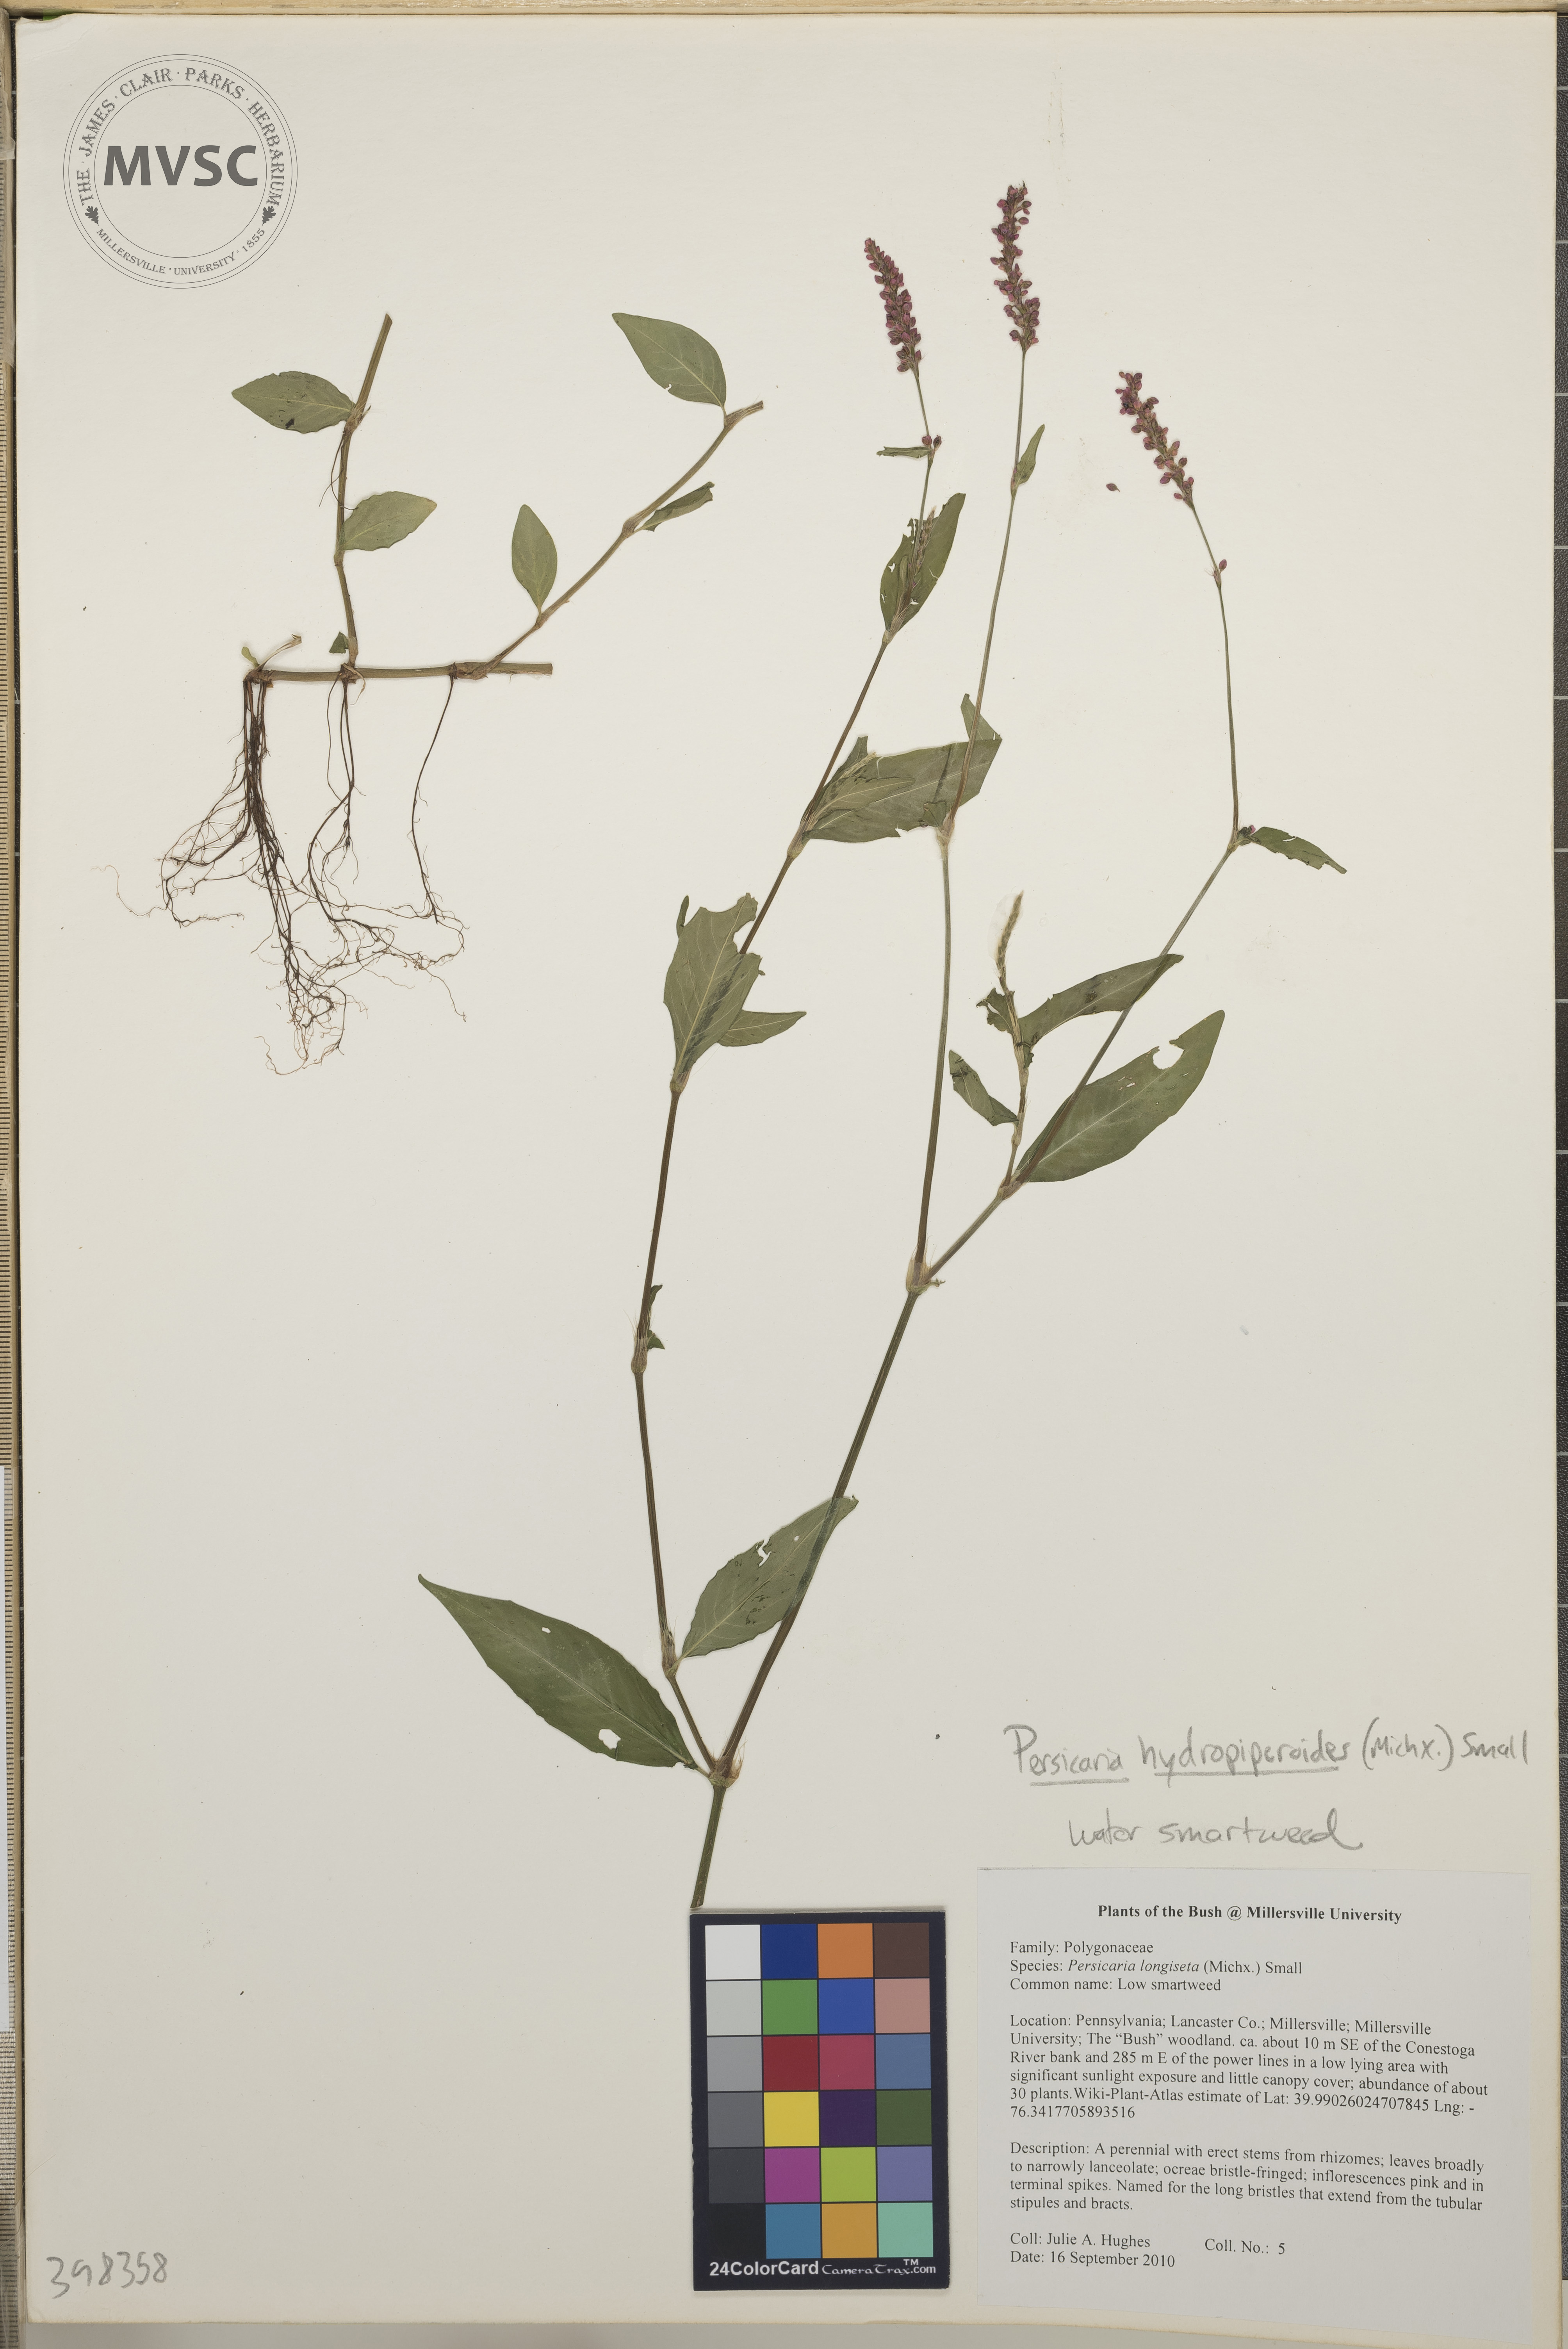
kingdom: Plantae
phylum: Tracheophyta
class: Magnoliopsida
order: Caryophyllales
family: Polygonaceae
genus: Persicaria
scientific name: Persicaria hydropiperoides
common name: Mild water-pepper
